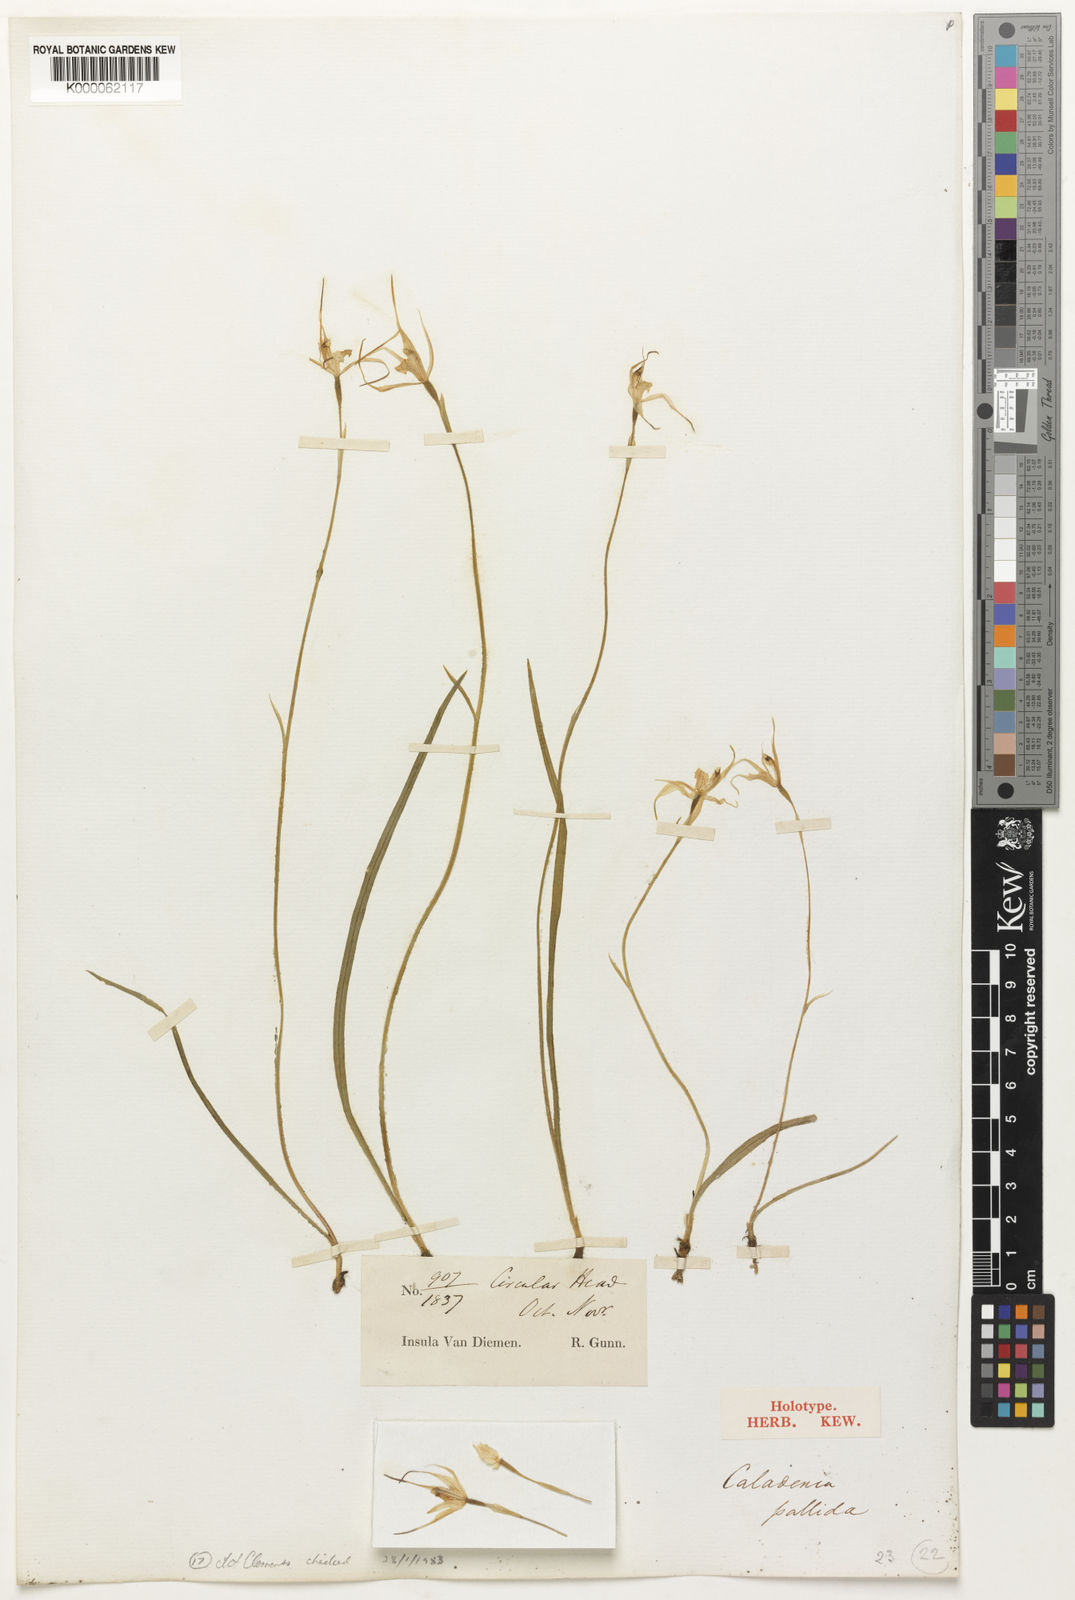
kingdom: Plantae
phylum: Tracheophyta
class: Liliopsida
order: Asparagales
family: Orchidaceae
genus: Caladenia
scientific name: Caladenia pallida
